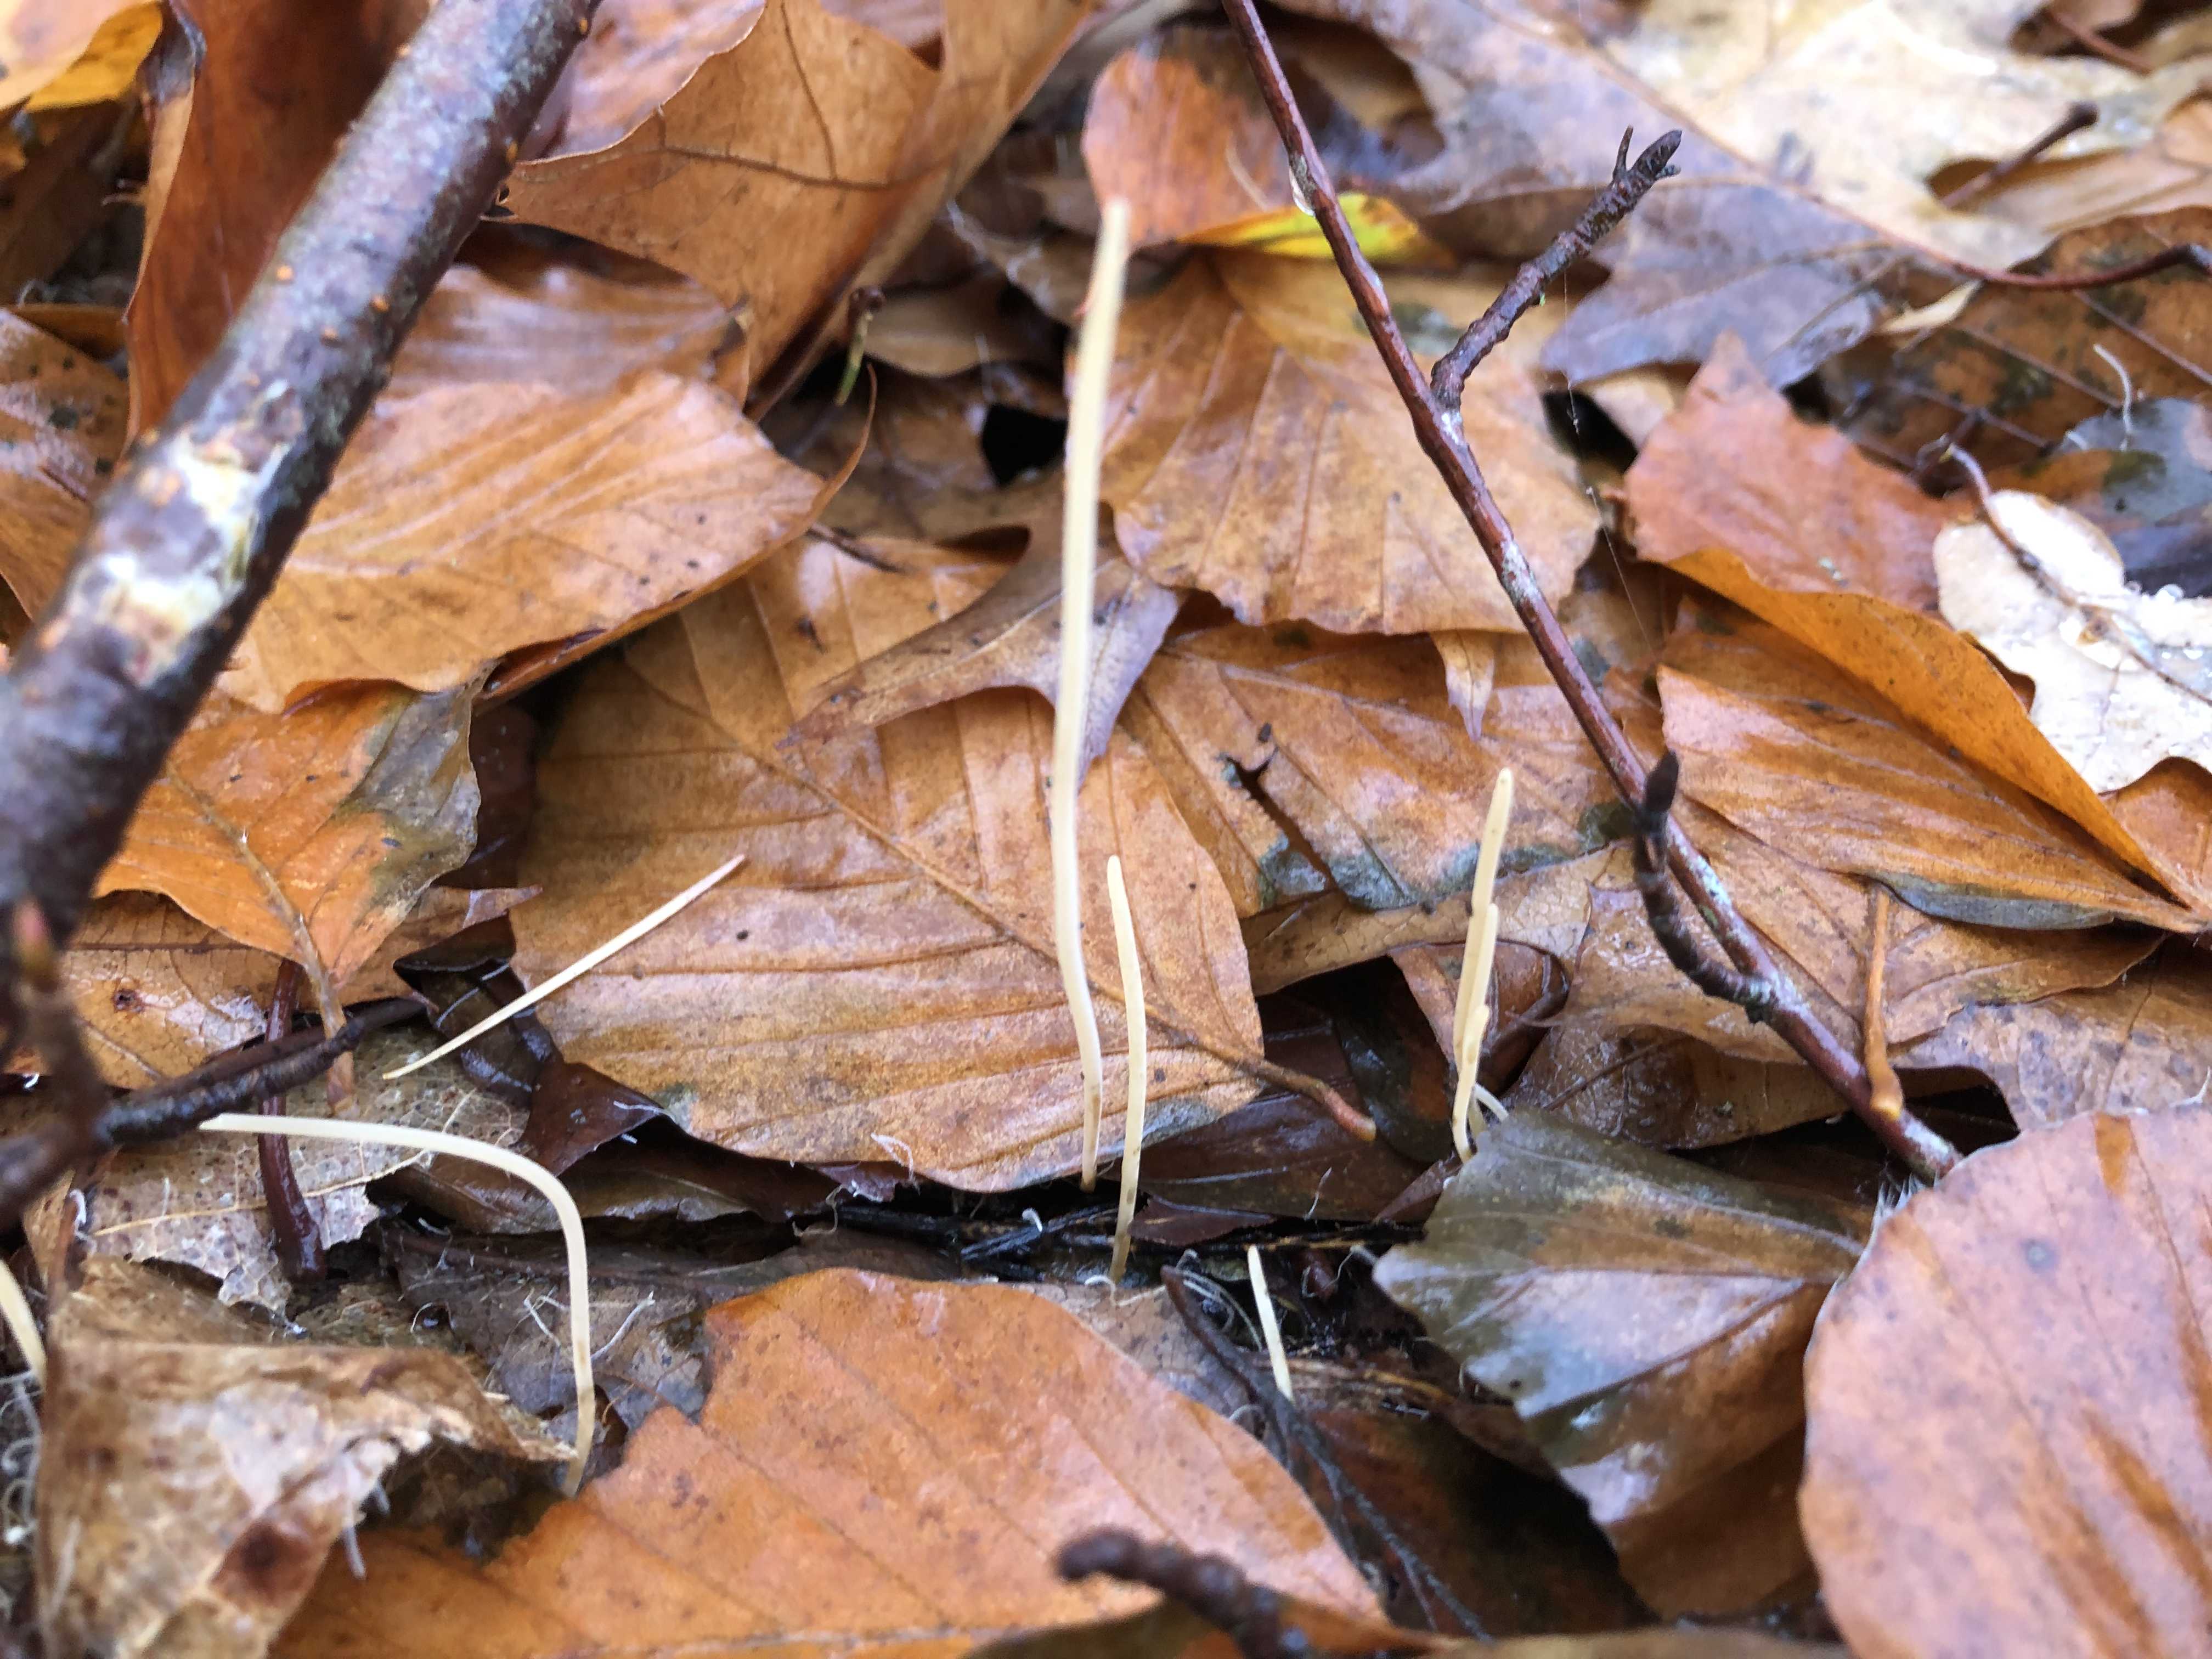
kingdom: Fungi
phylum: Basidiomycota
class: Agaricomycetes
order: Agaricales
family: Typhulaceae
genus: Macrotyphula
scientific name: Macrotyphula
